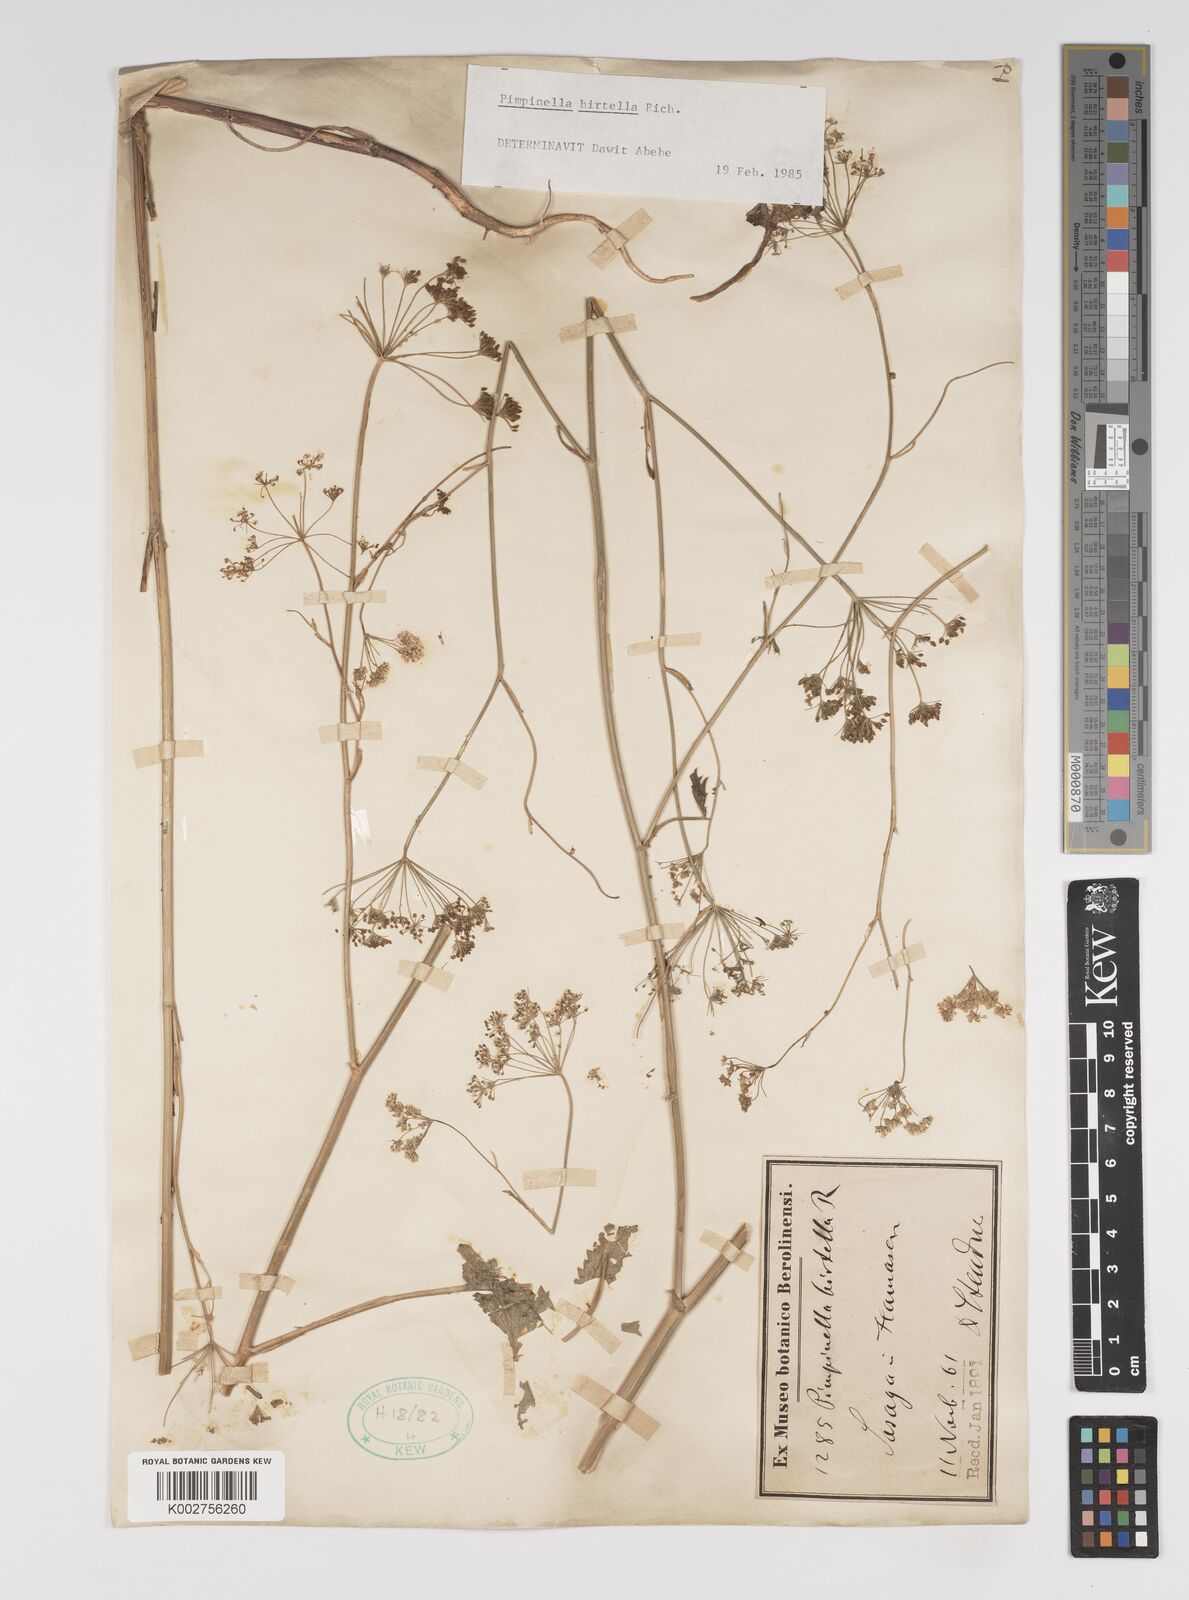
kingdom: Plantae
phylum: Tracheophyta
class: Magnoliopsida
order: Apiales
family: Apiaceae
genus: Pimpinella
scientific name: Pimpinella hirtella
